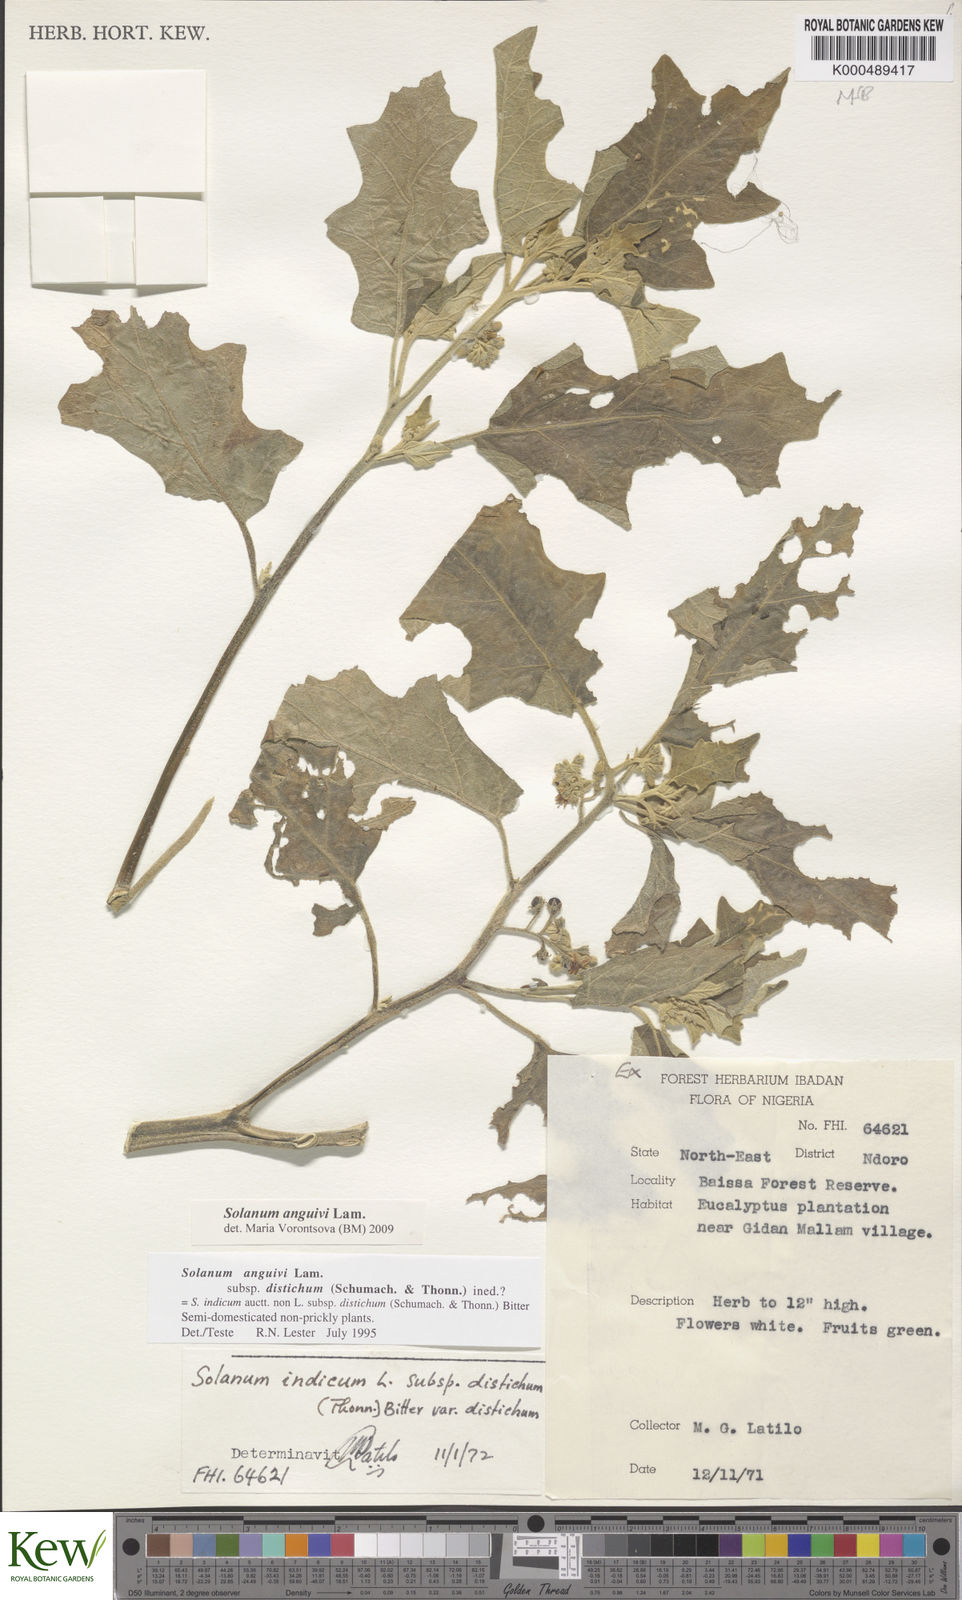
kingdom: Plantae
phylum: Tracheophyta
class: Magnoliopsida
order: Solanales
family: Solanaceae
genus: Solanum
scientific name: Solanum anguivi
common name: Forest bitterberry
